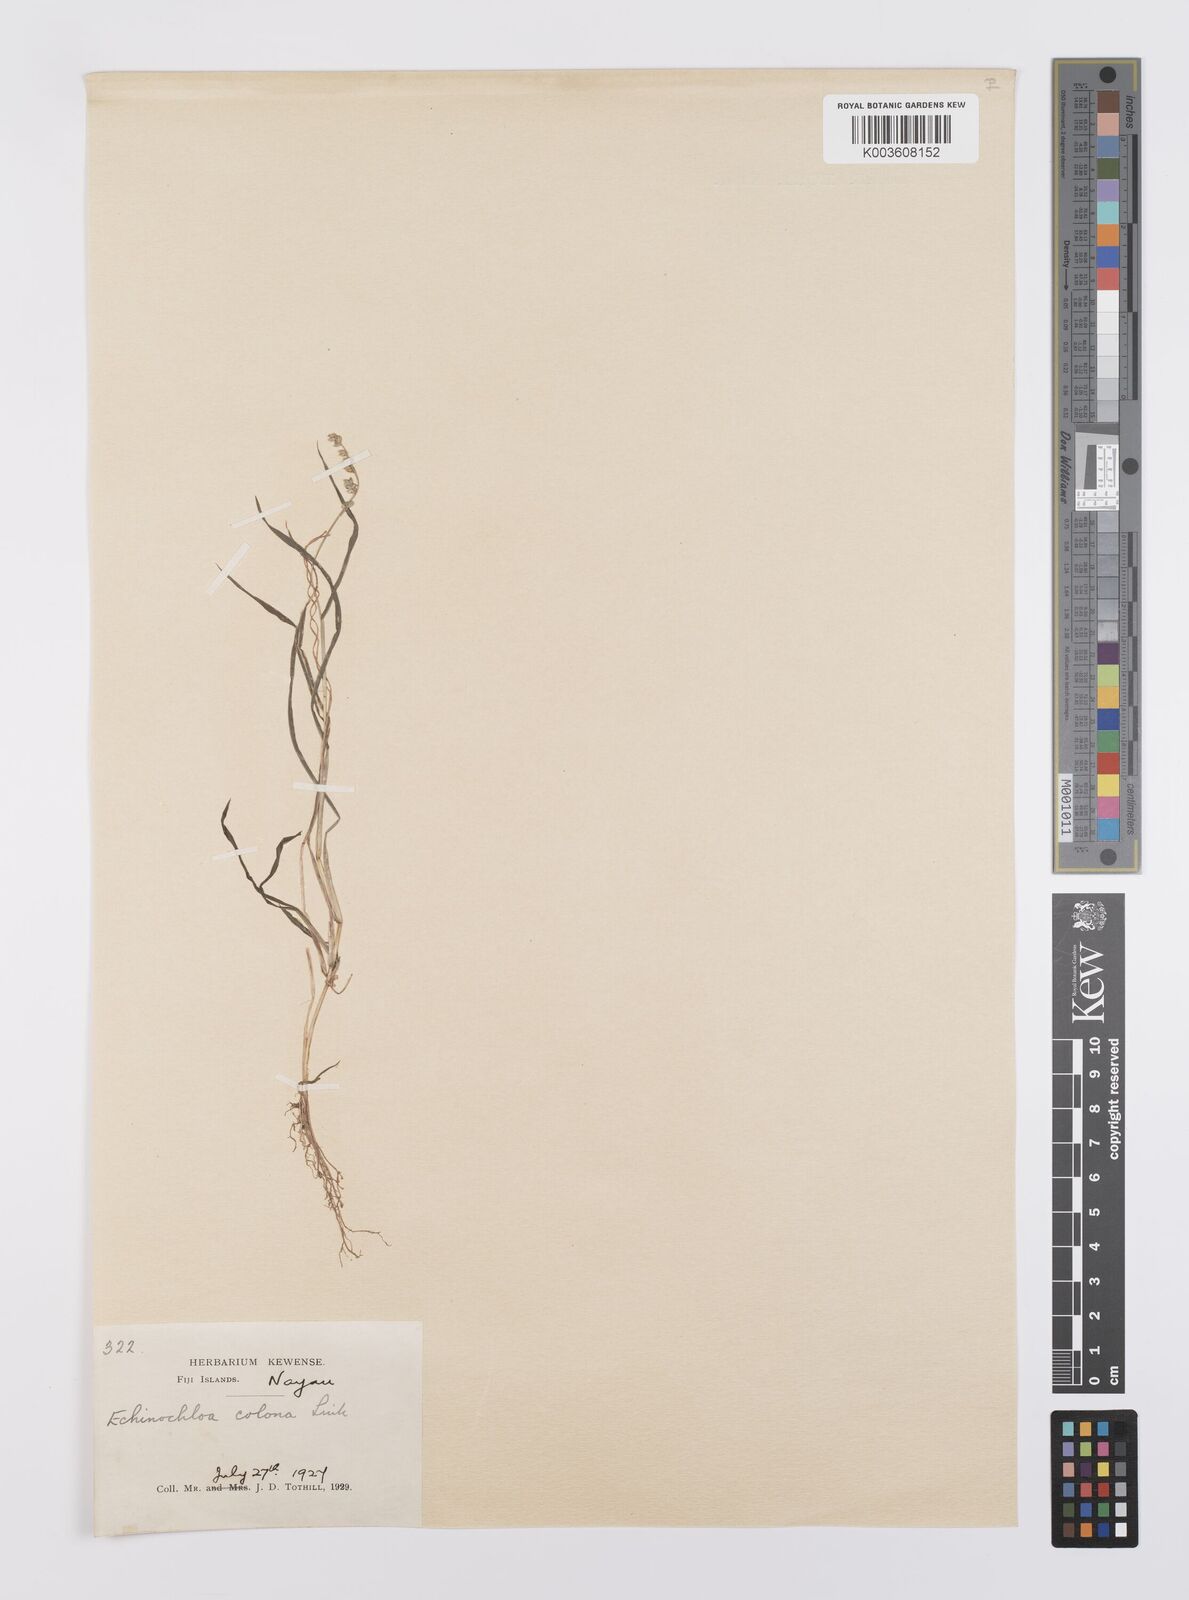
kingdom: Plantae
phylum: Tracheophyta
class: Liliopsida
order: Poales
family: Poaceae
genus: Echinochloa
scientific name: Echinochloa colonum
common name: Jungle rice
